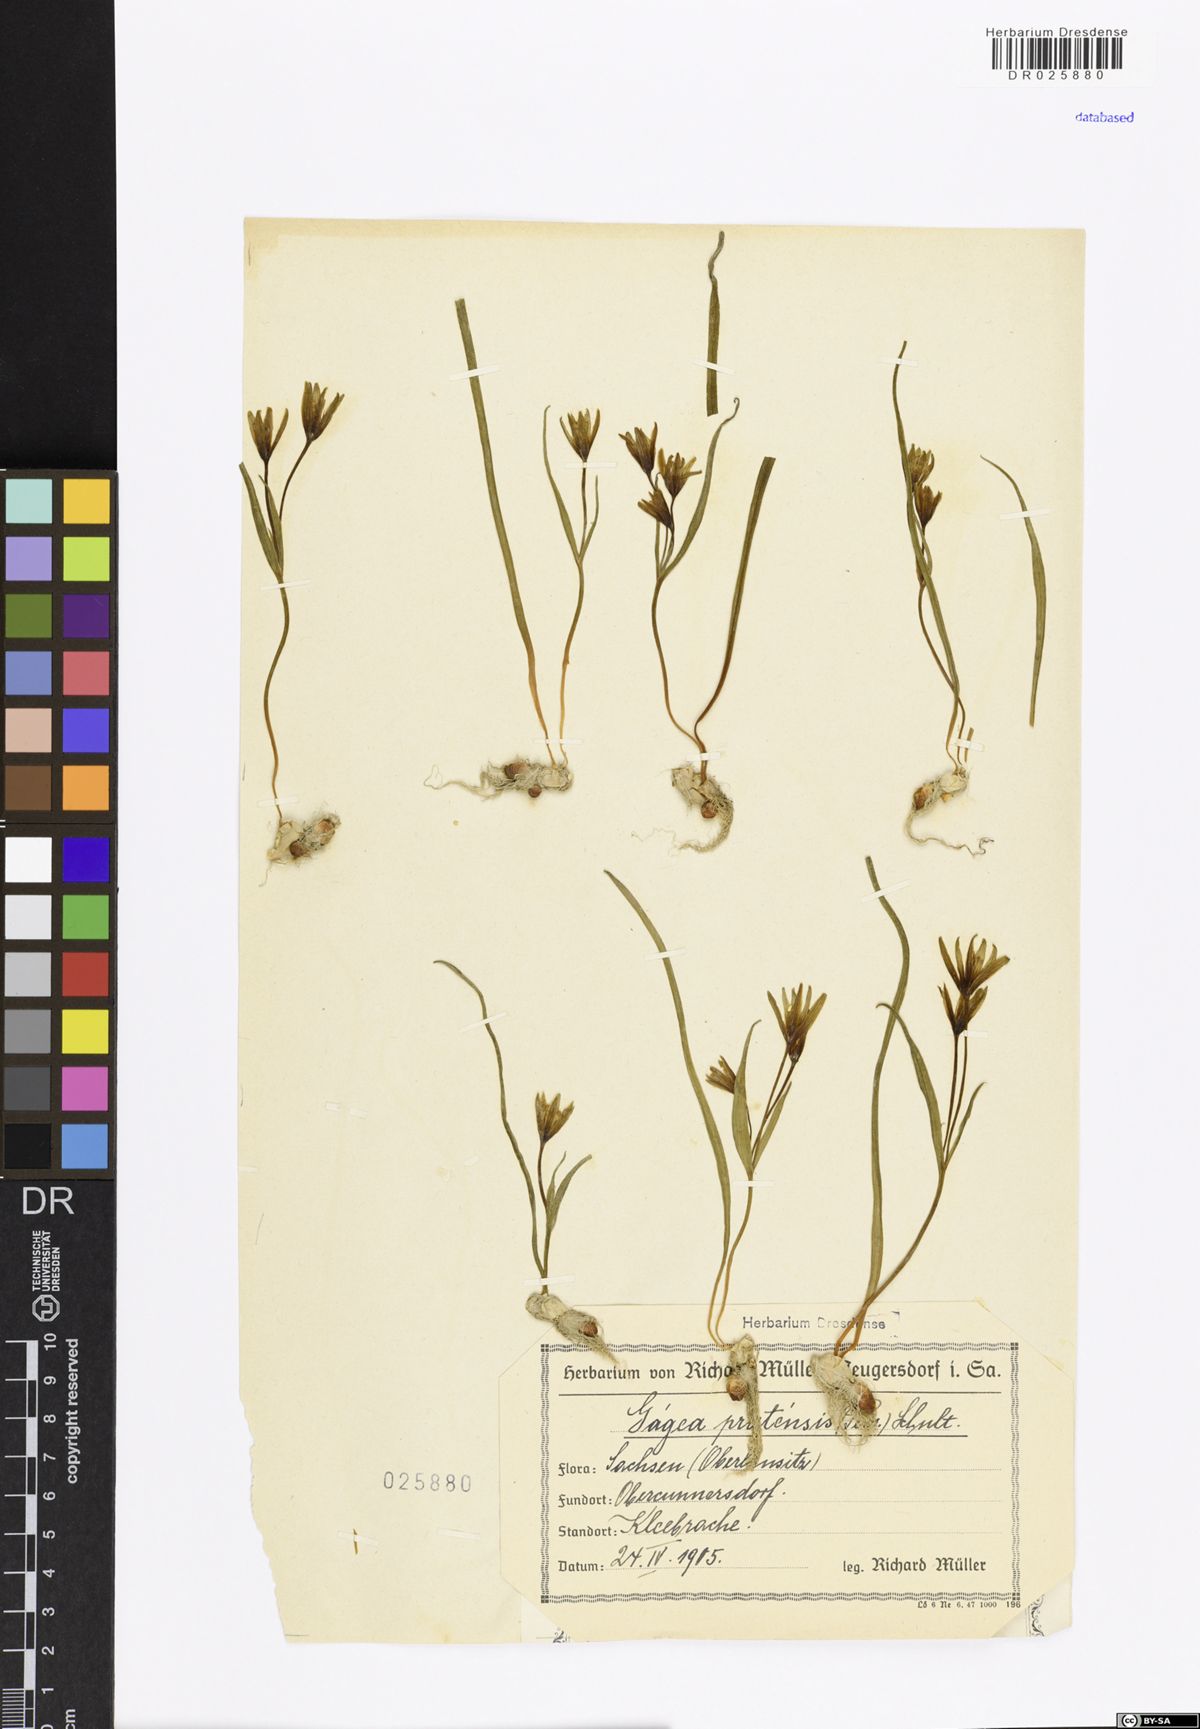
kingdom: Plantae
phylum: Tracheophyta
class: Liliopsida
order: Liliales
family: Liliaceae
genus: Gagea
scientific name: Gagea pratensis
